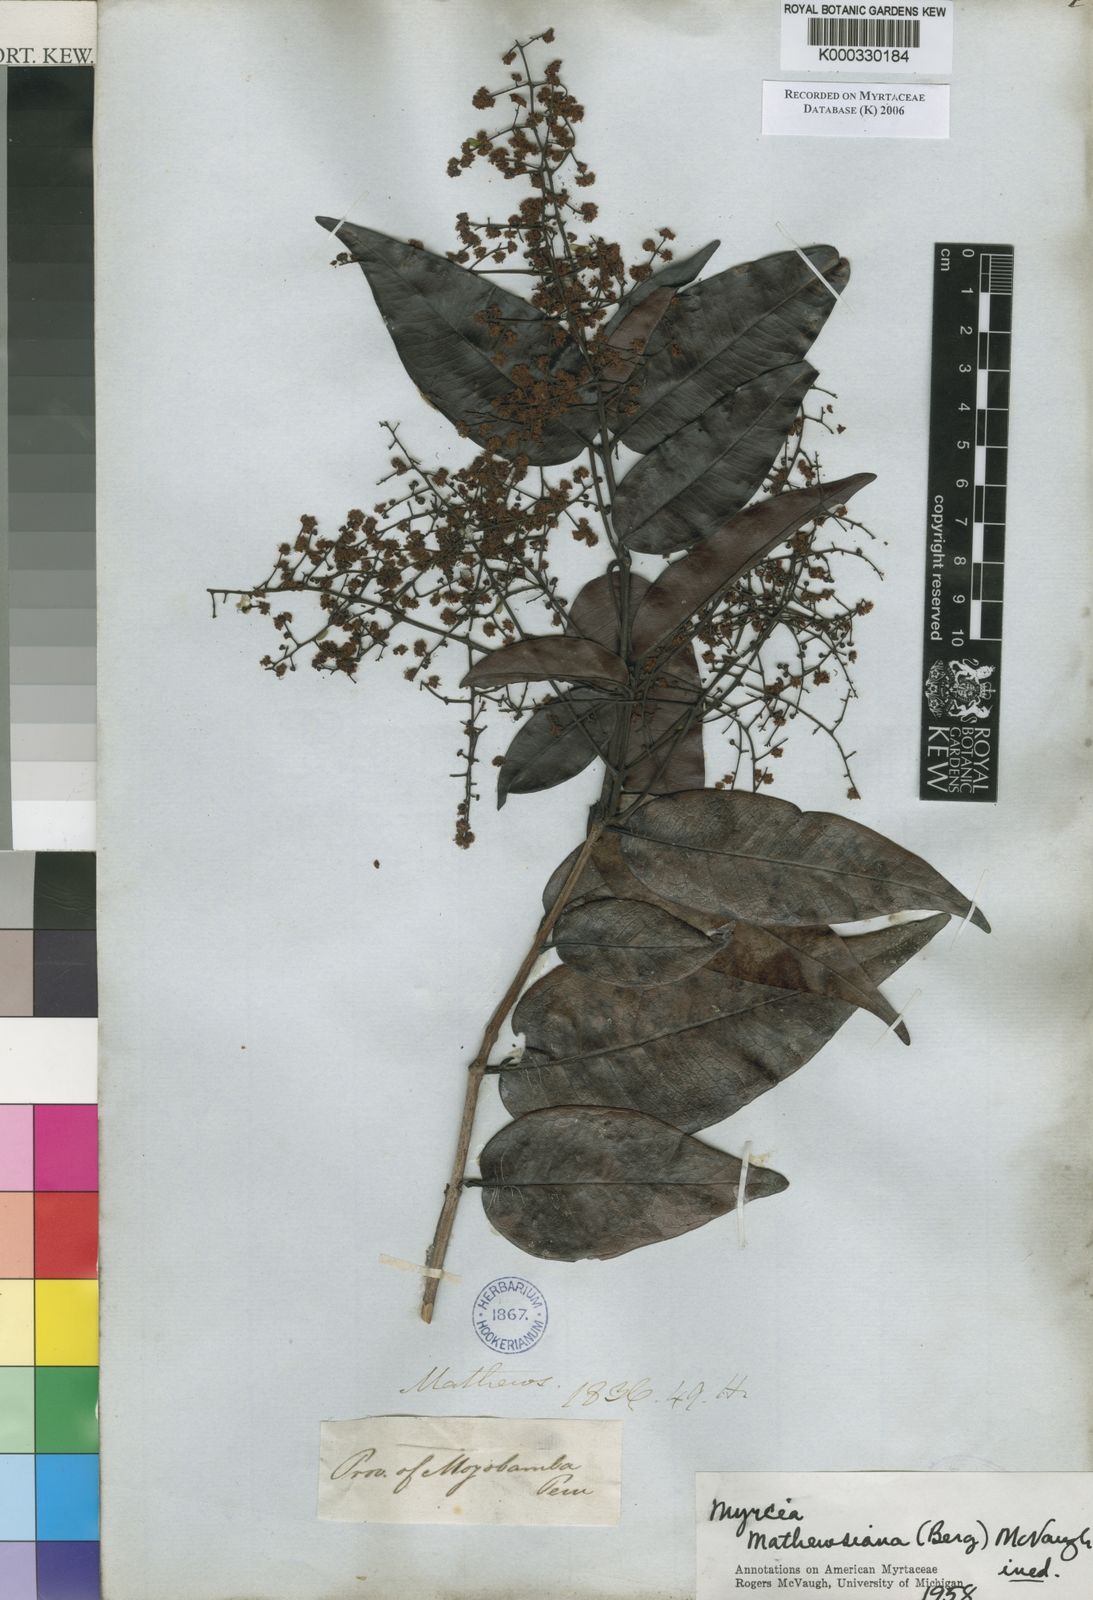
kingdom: Plantae
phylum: Tracheophyta
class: Magnoliopsida
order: Myrtales
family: Myrtaceae
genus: Myrcia
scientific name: Myrcia mathewsiana
